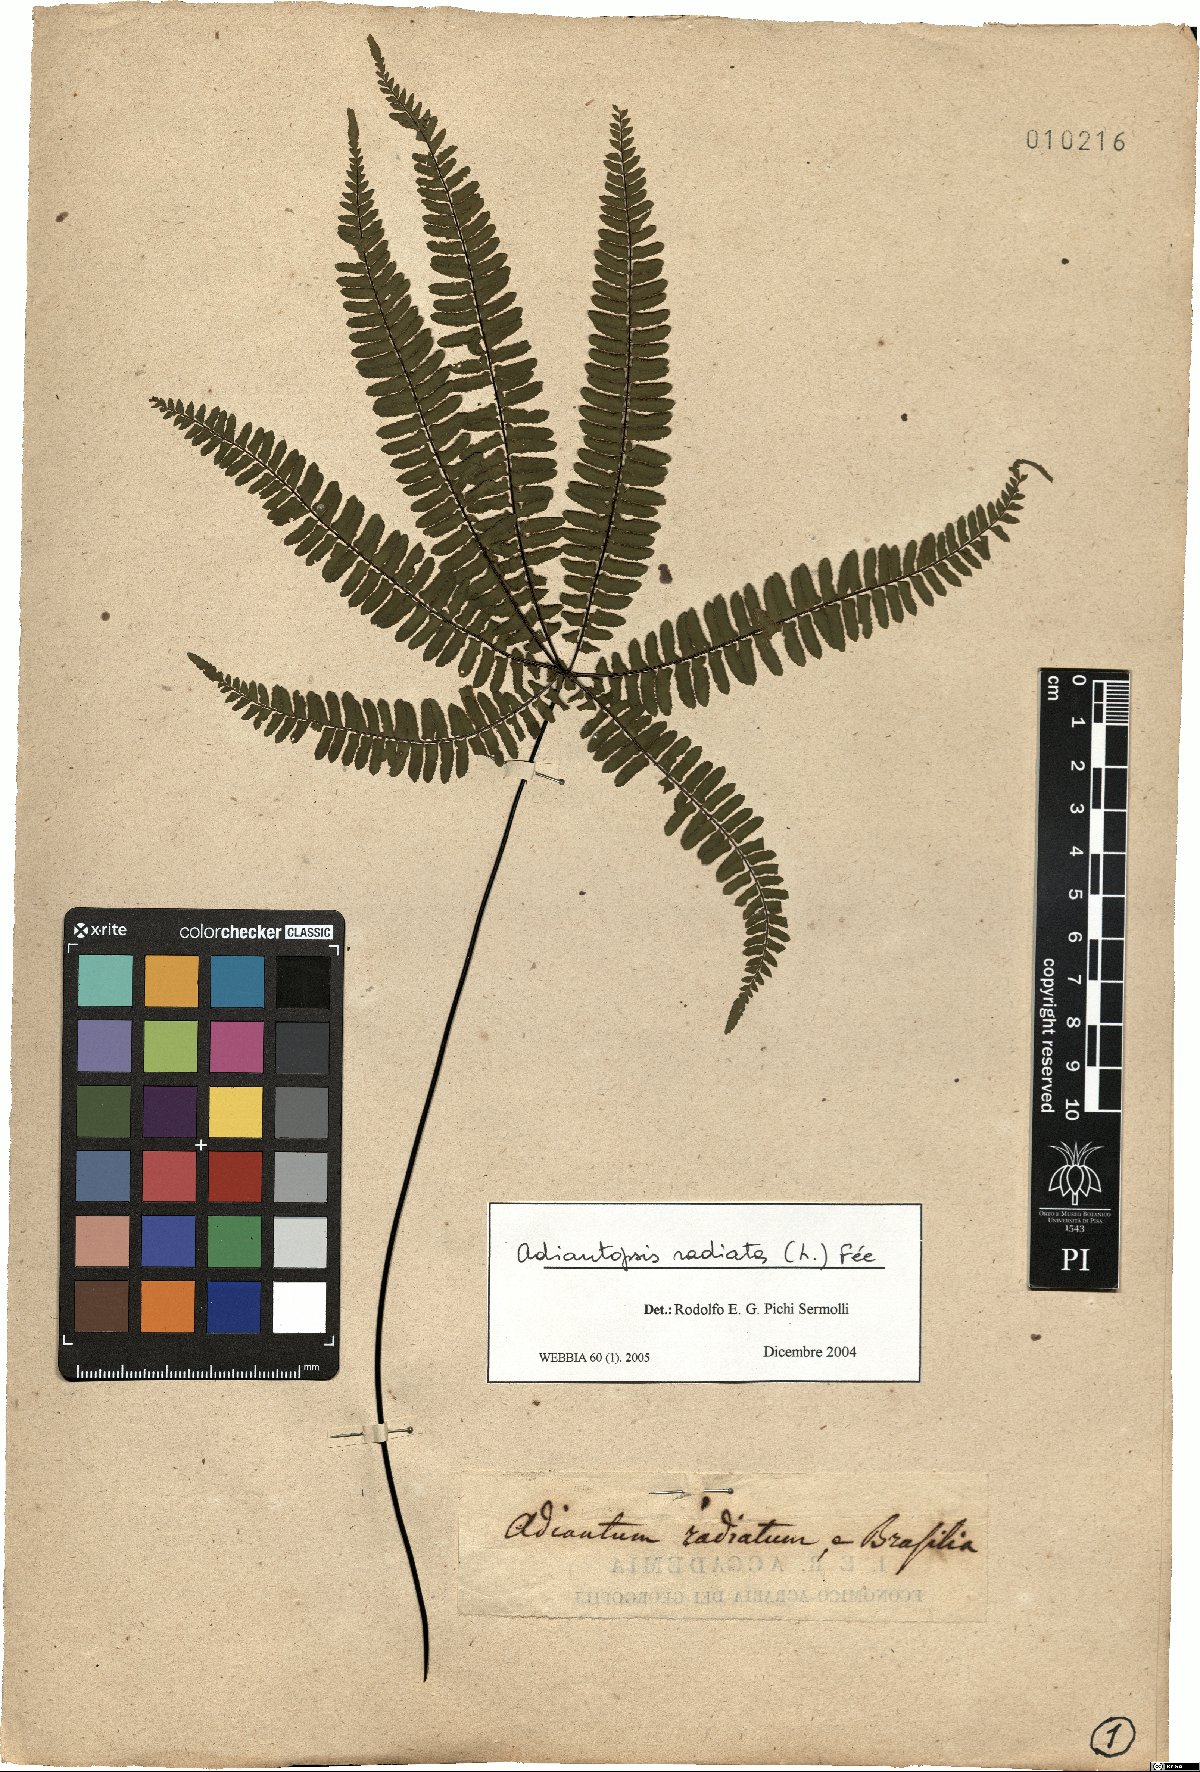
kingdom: Plantae
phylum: Tracheophyta
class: Polypodiopsida
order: Polypodiales
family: Pteridaceae
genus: Adiantopsis
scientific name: Adiantopsis radiata
